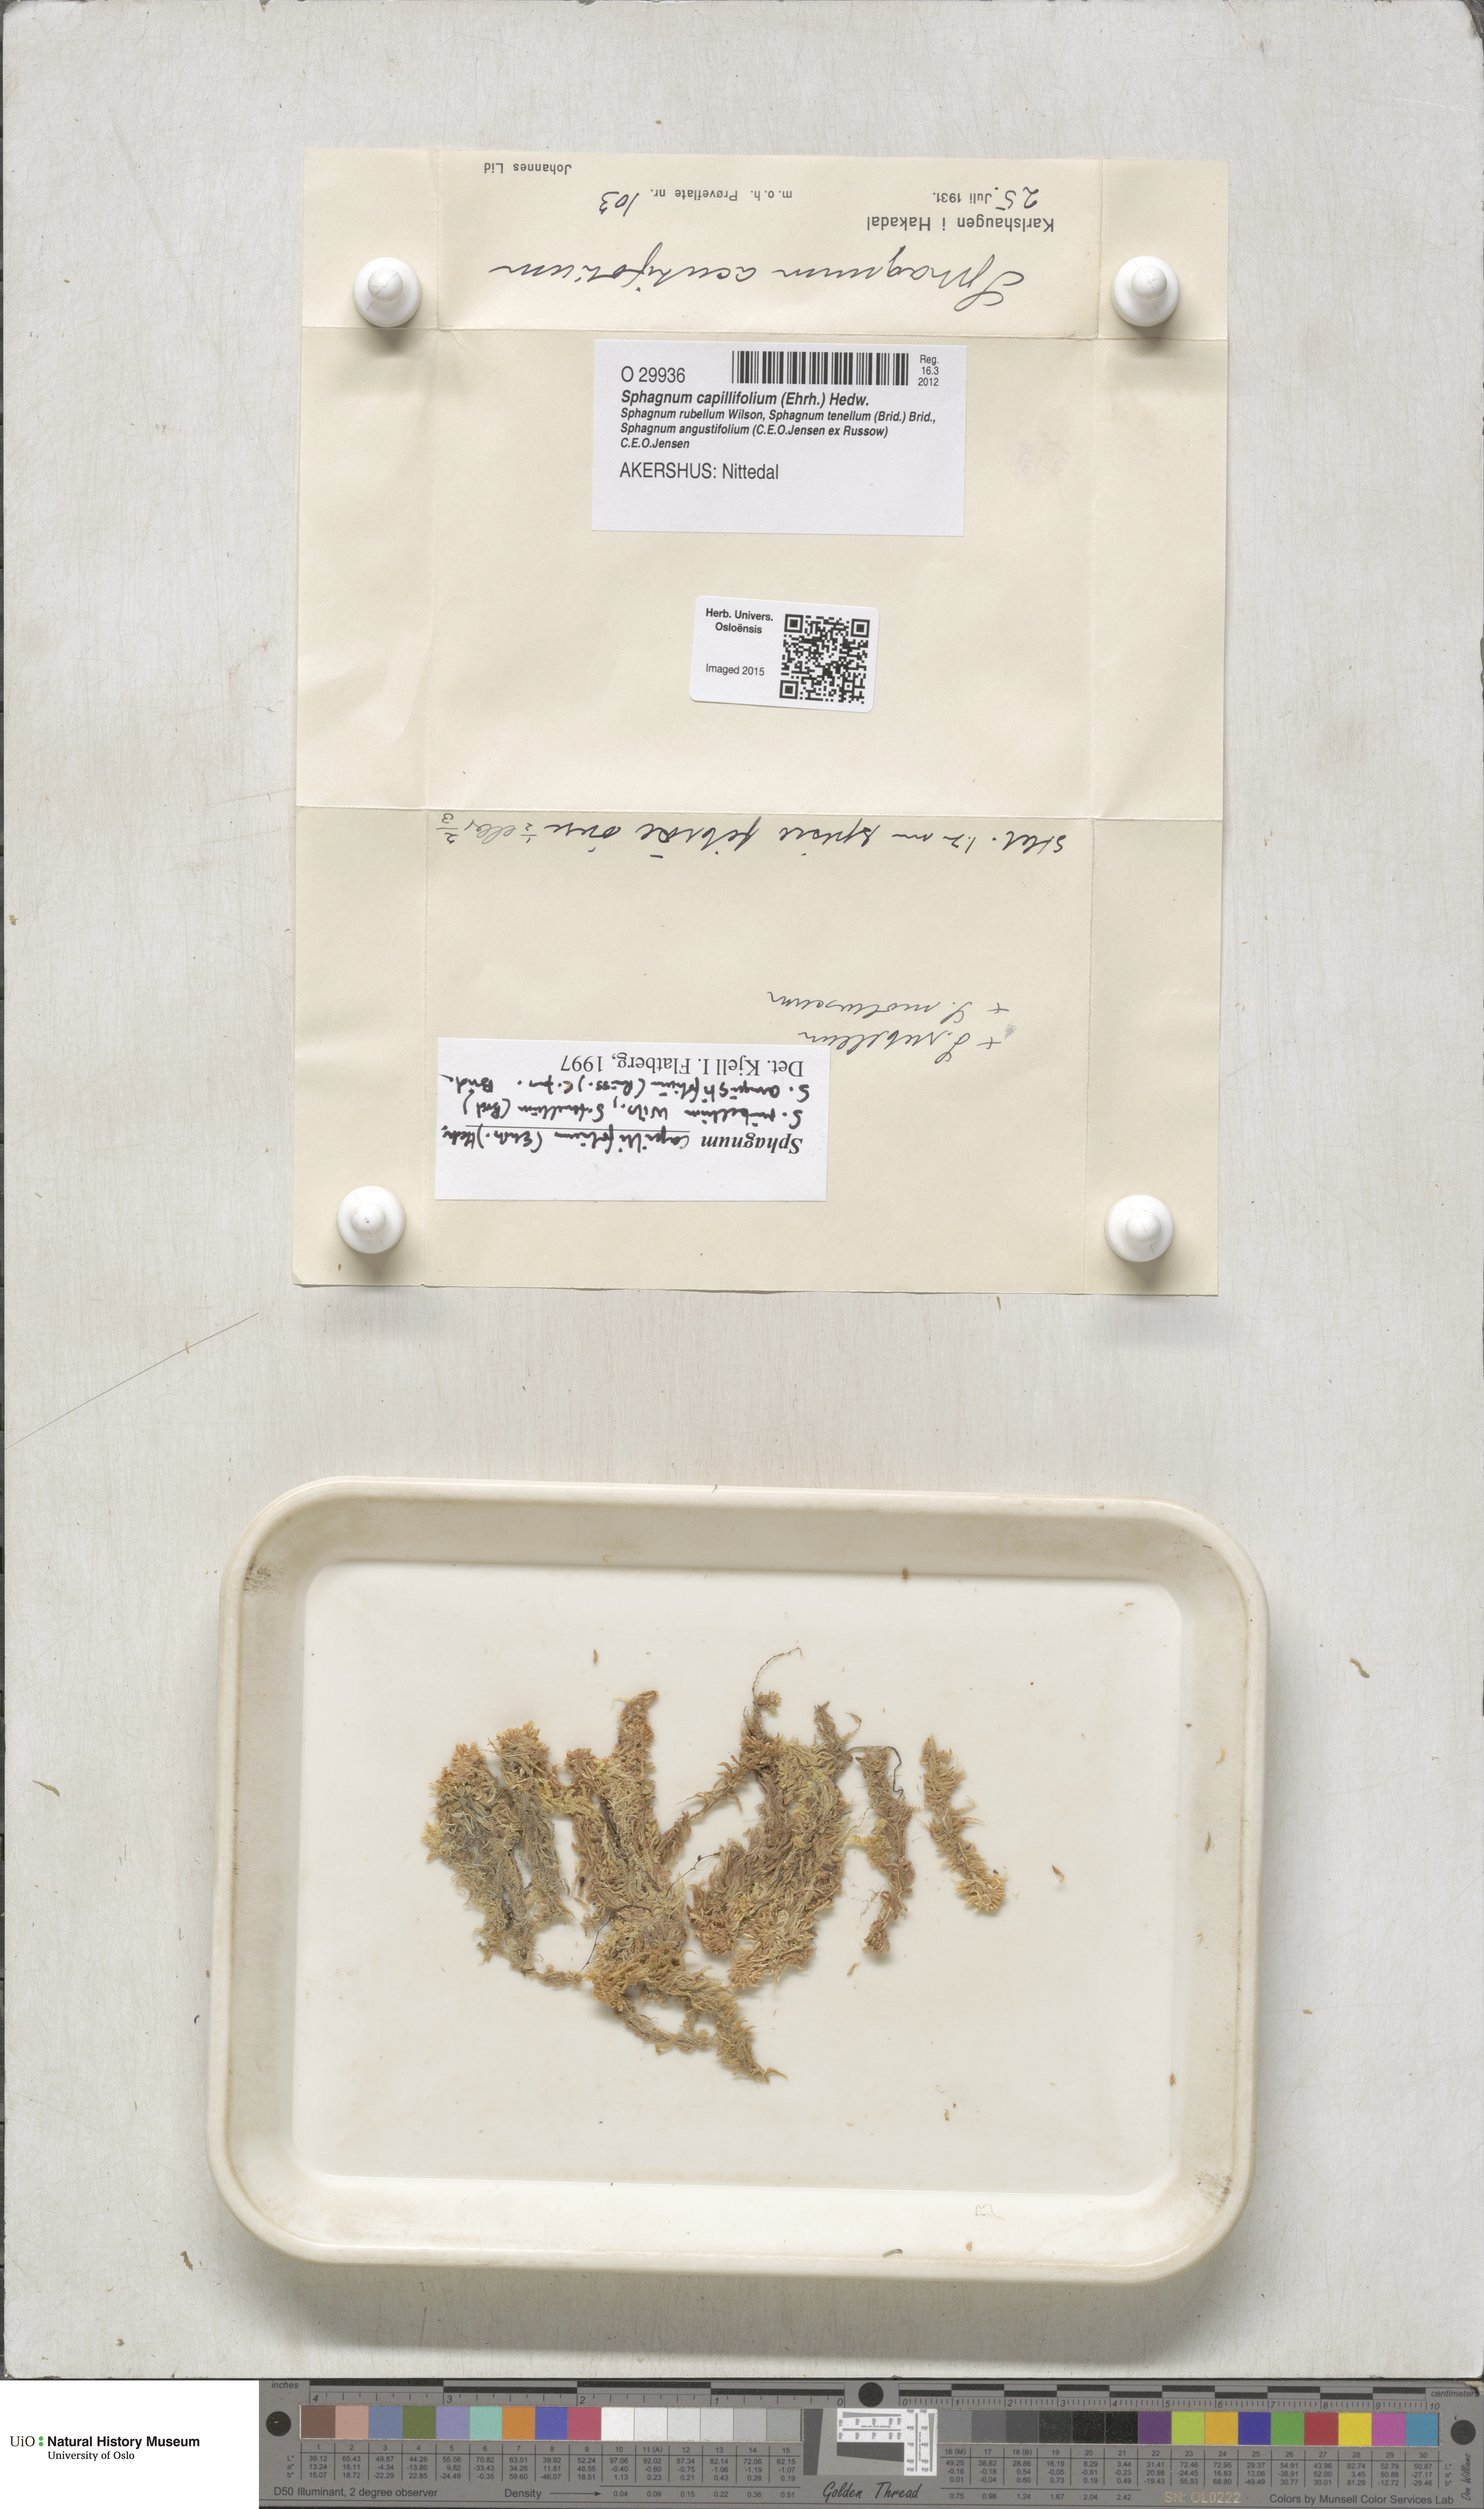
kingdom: Plantae
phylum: Bryophyta
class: Sphagnopsida
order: Sphagnales
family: Sphagnaceae
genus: Sphagnum
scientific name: Sphagnum capillifolium
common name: Small red peat moss
